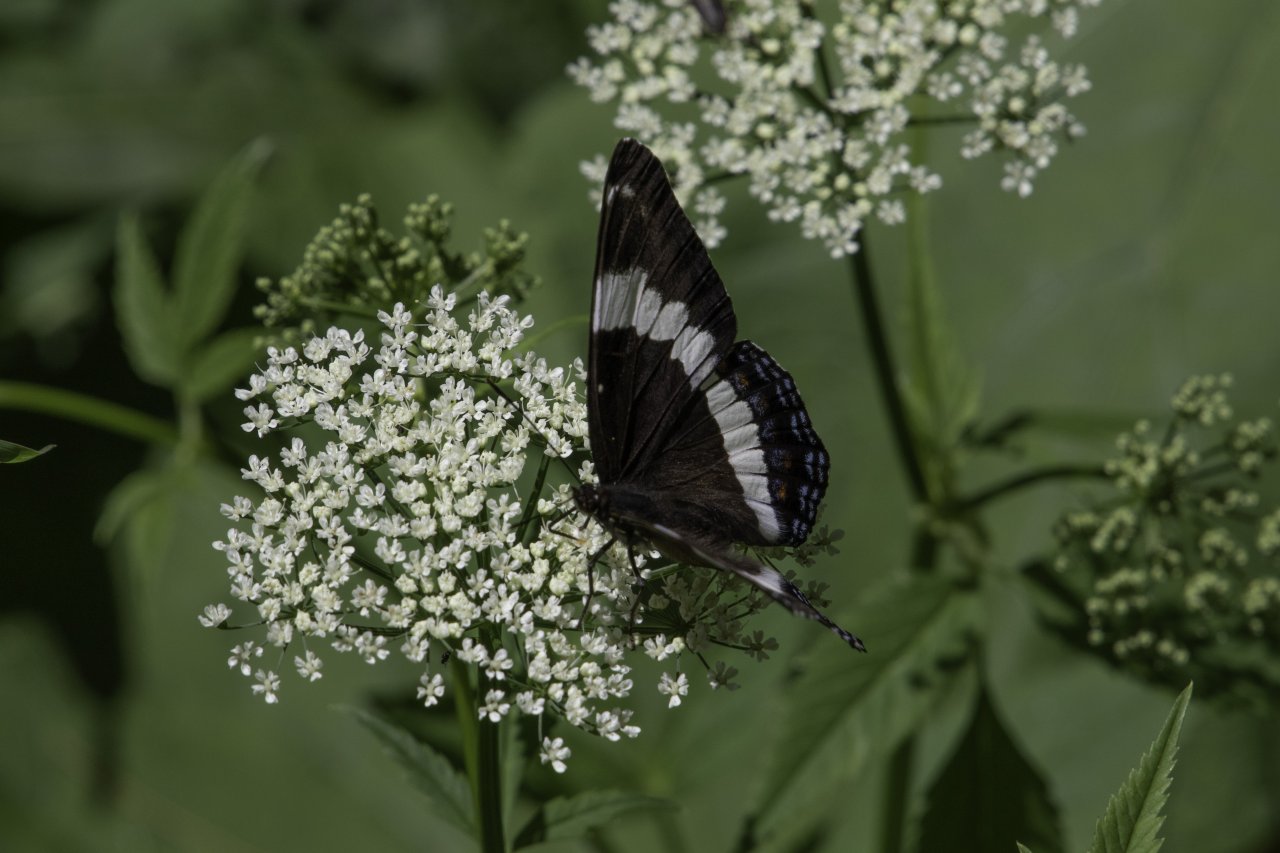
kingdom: Animalia
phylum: Arthropoda
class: Insecta
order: Lepidoptera
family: Nymphalidae
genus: Limenitis
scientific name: Limenitis arthemis
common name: Red-spotted Admiral
